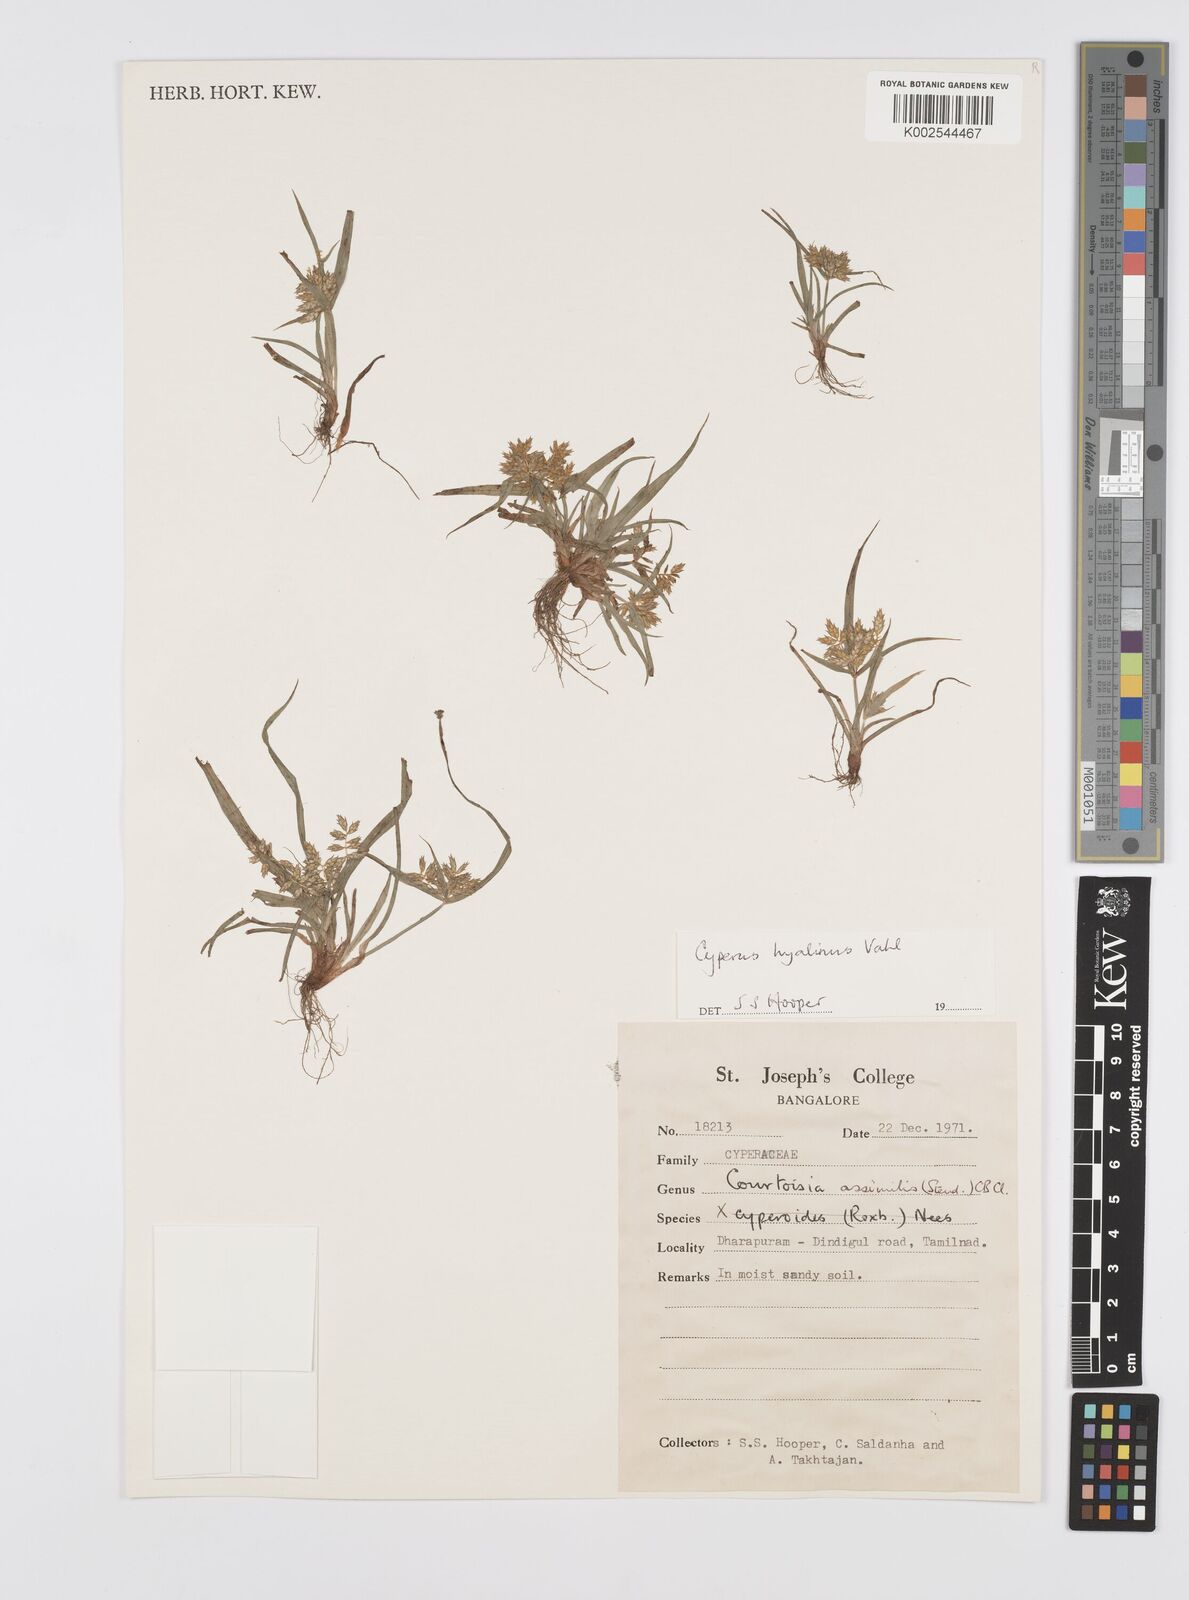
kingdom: Plantae
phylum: Tracheophyta
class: Liliopsida
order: Poales
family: Cyperaceae
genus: Cyperus
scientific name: Cyperus hyalinus
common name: Queensland sedge
